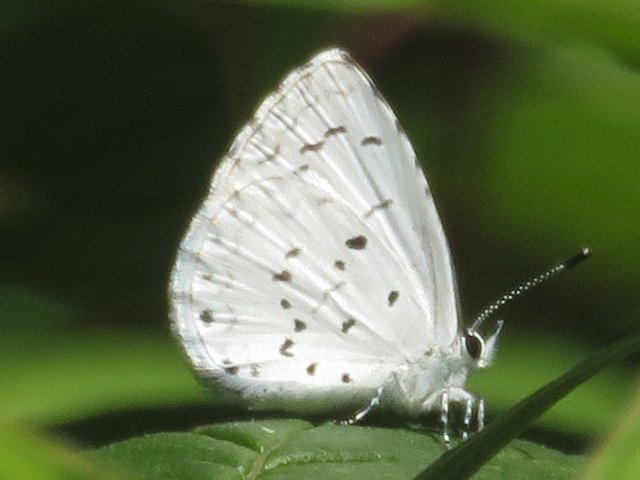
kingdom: Animalia
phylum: Arthropoda
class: Insecta
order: Lepidoptera
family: Lycaenidae
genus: Celastrina
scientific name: Celastrina
